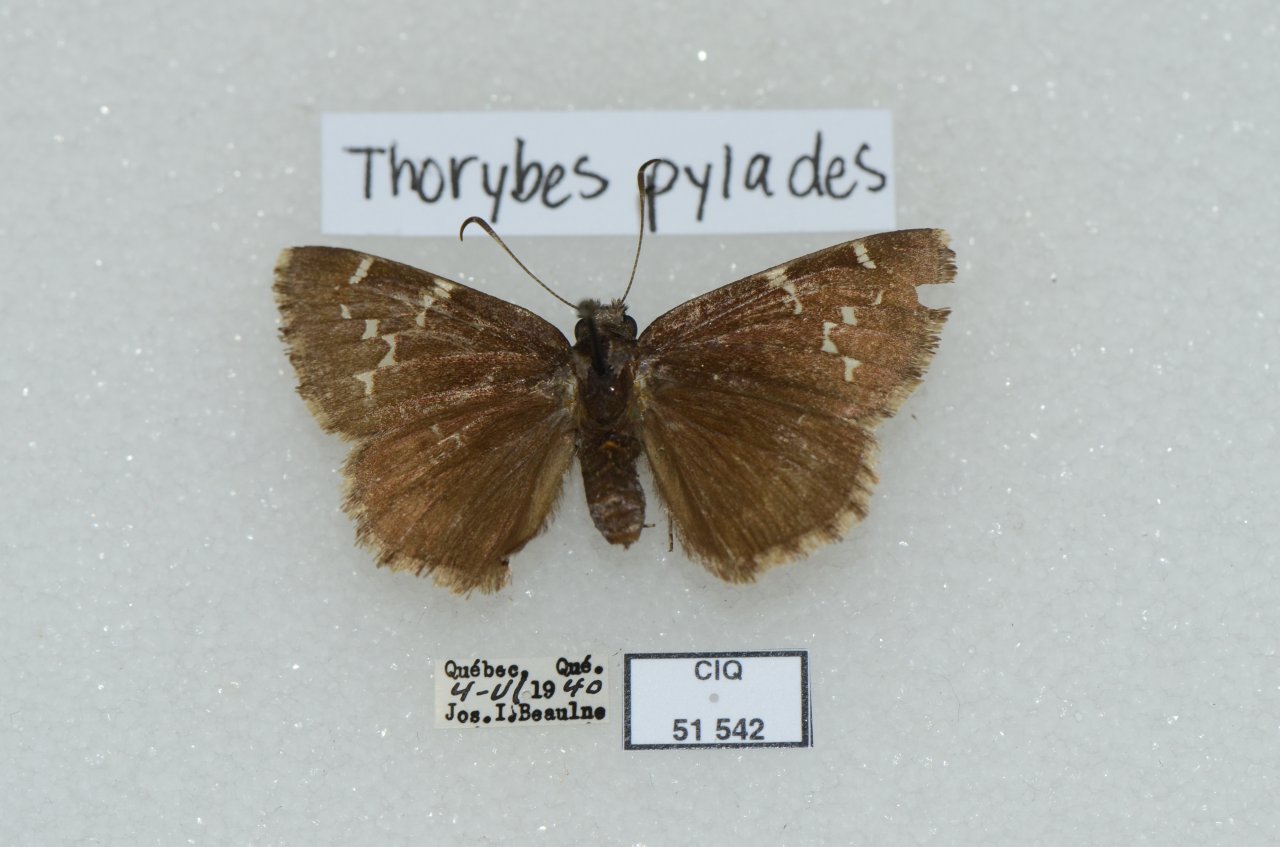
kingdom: Animalia
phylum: Arthropoda
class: Insecta
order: Lepidoptera
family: Hesperiidae
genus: Autochton
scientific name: Autochton
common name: Northern Cloudywing
